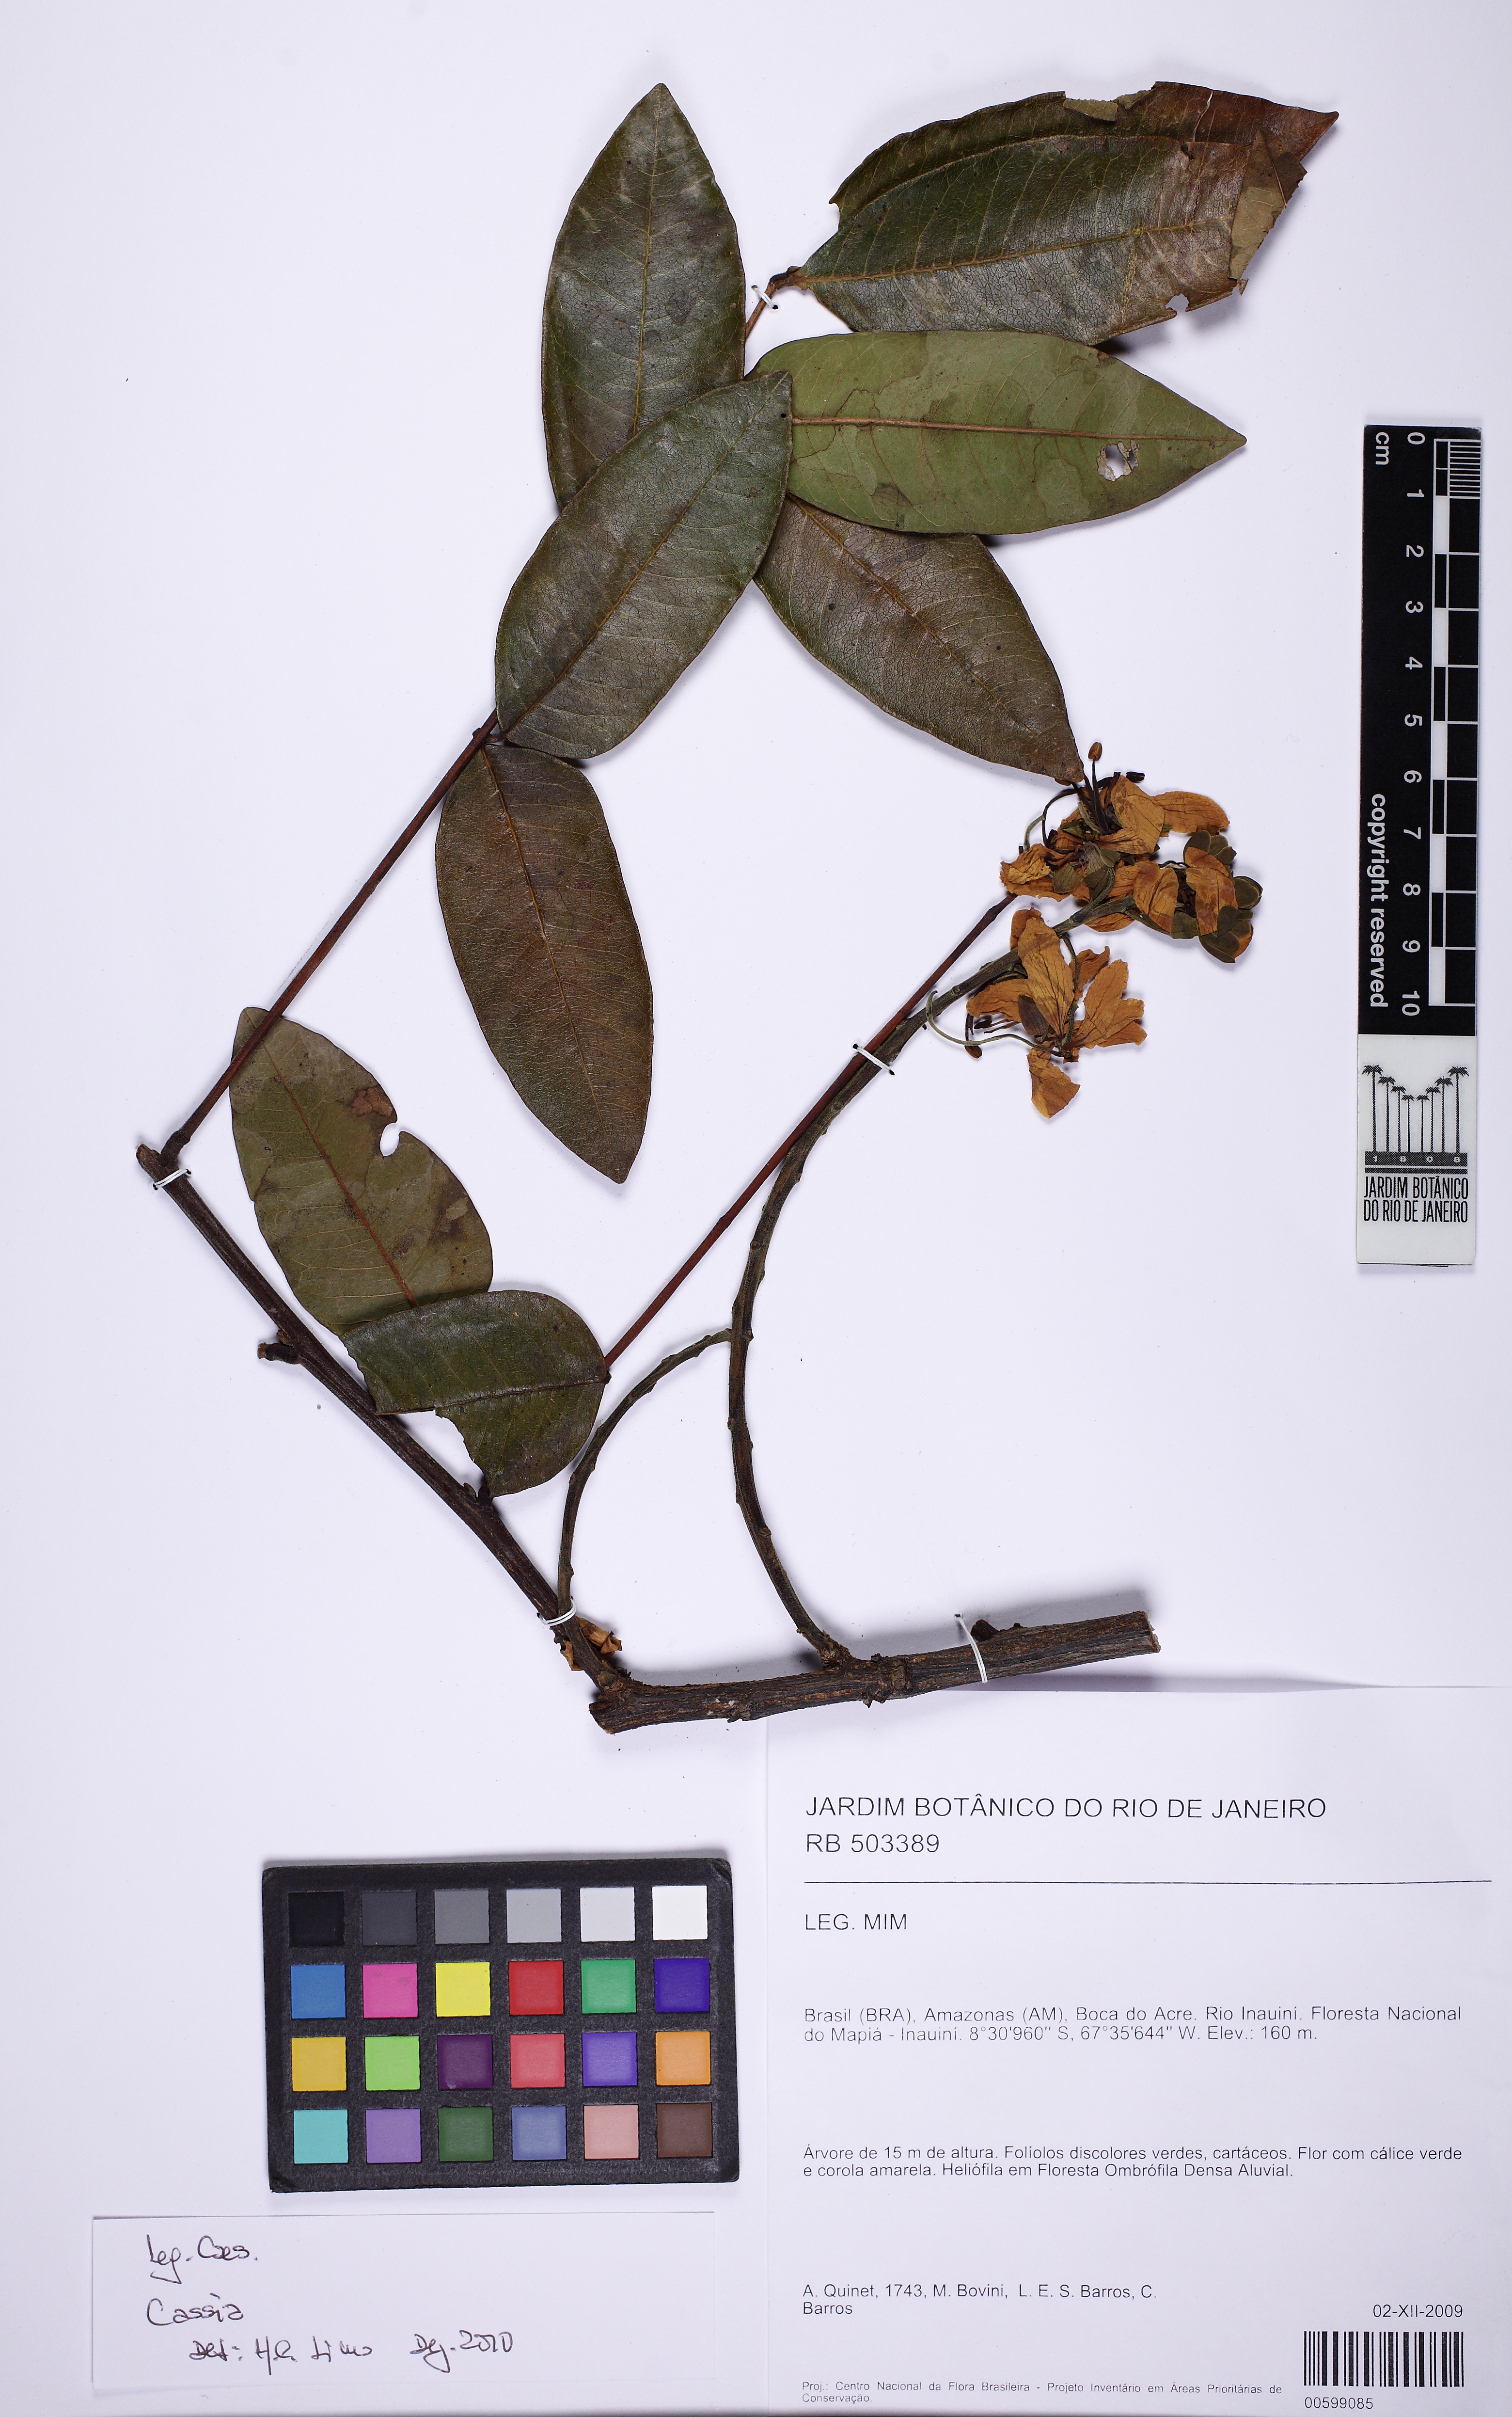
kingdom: Plantae
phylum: Tracheophyta
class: Magnoliopsida
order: Fabales
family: Fabaceae
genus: Cassia
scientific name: Cassia
